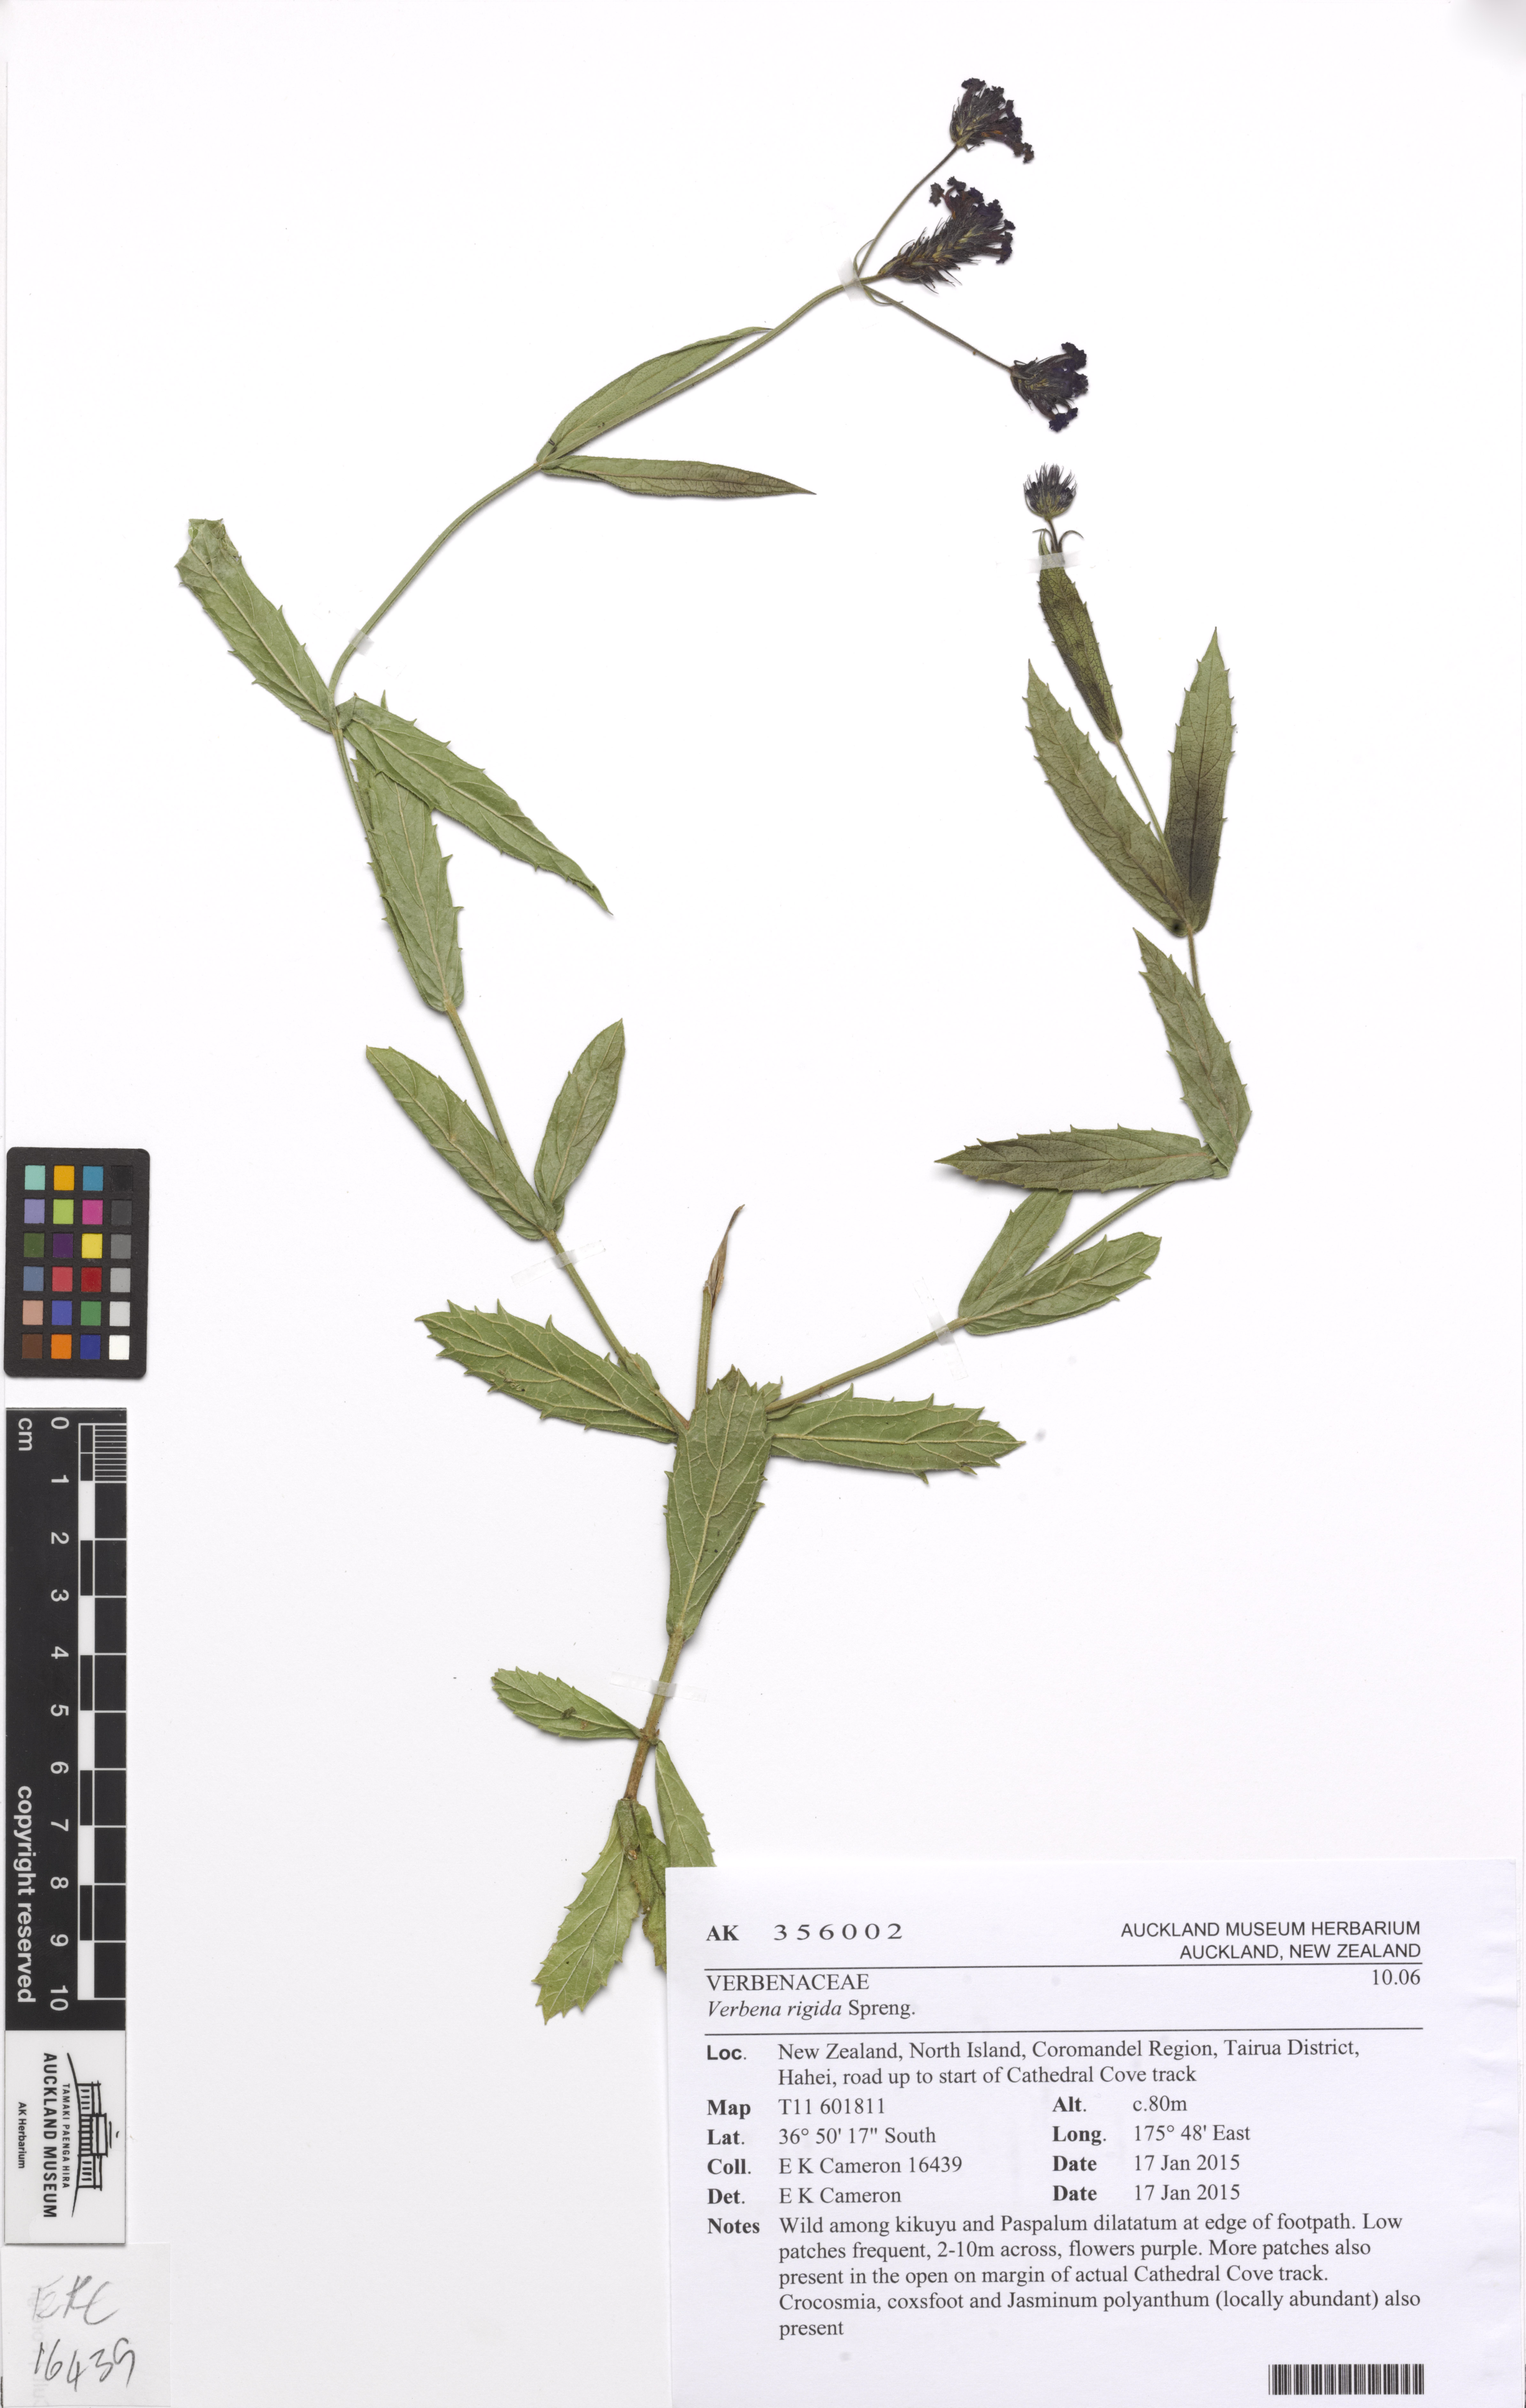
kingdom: Plantae
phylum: Tracheophyta
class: Magnoliopsida
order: Lamiales
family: Verbenaceae
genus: Verbena
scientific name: Verbena rigida
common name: Slender vervain
